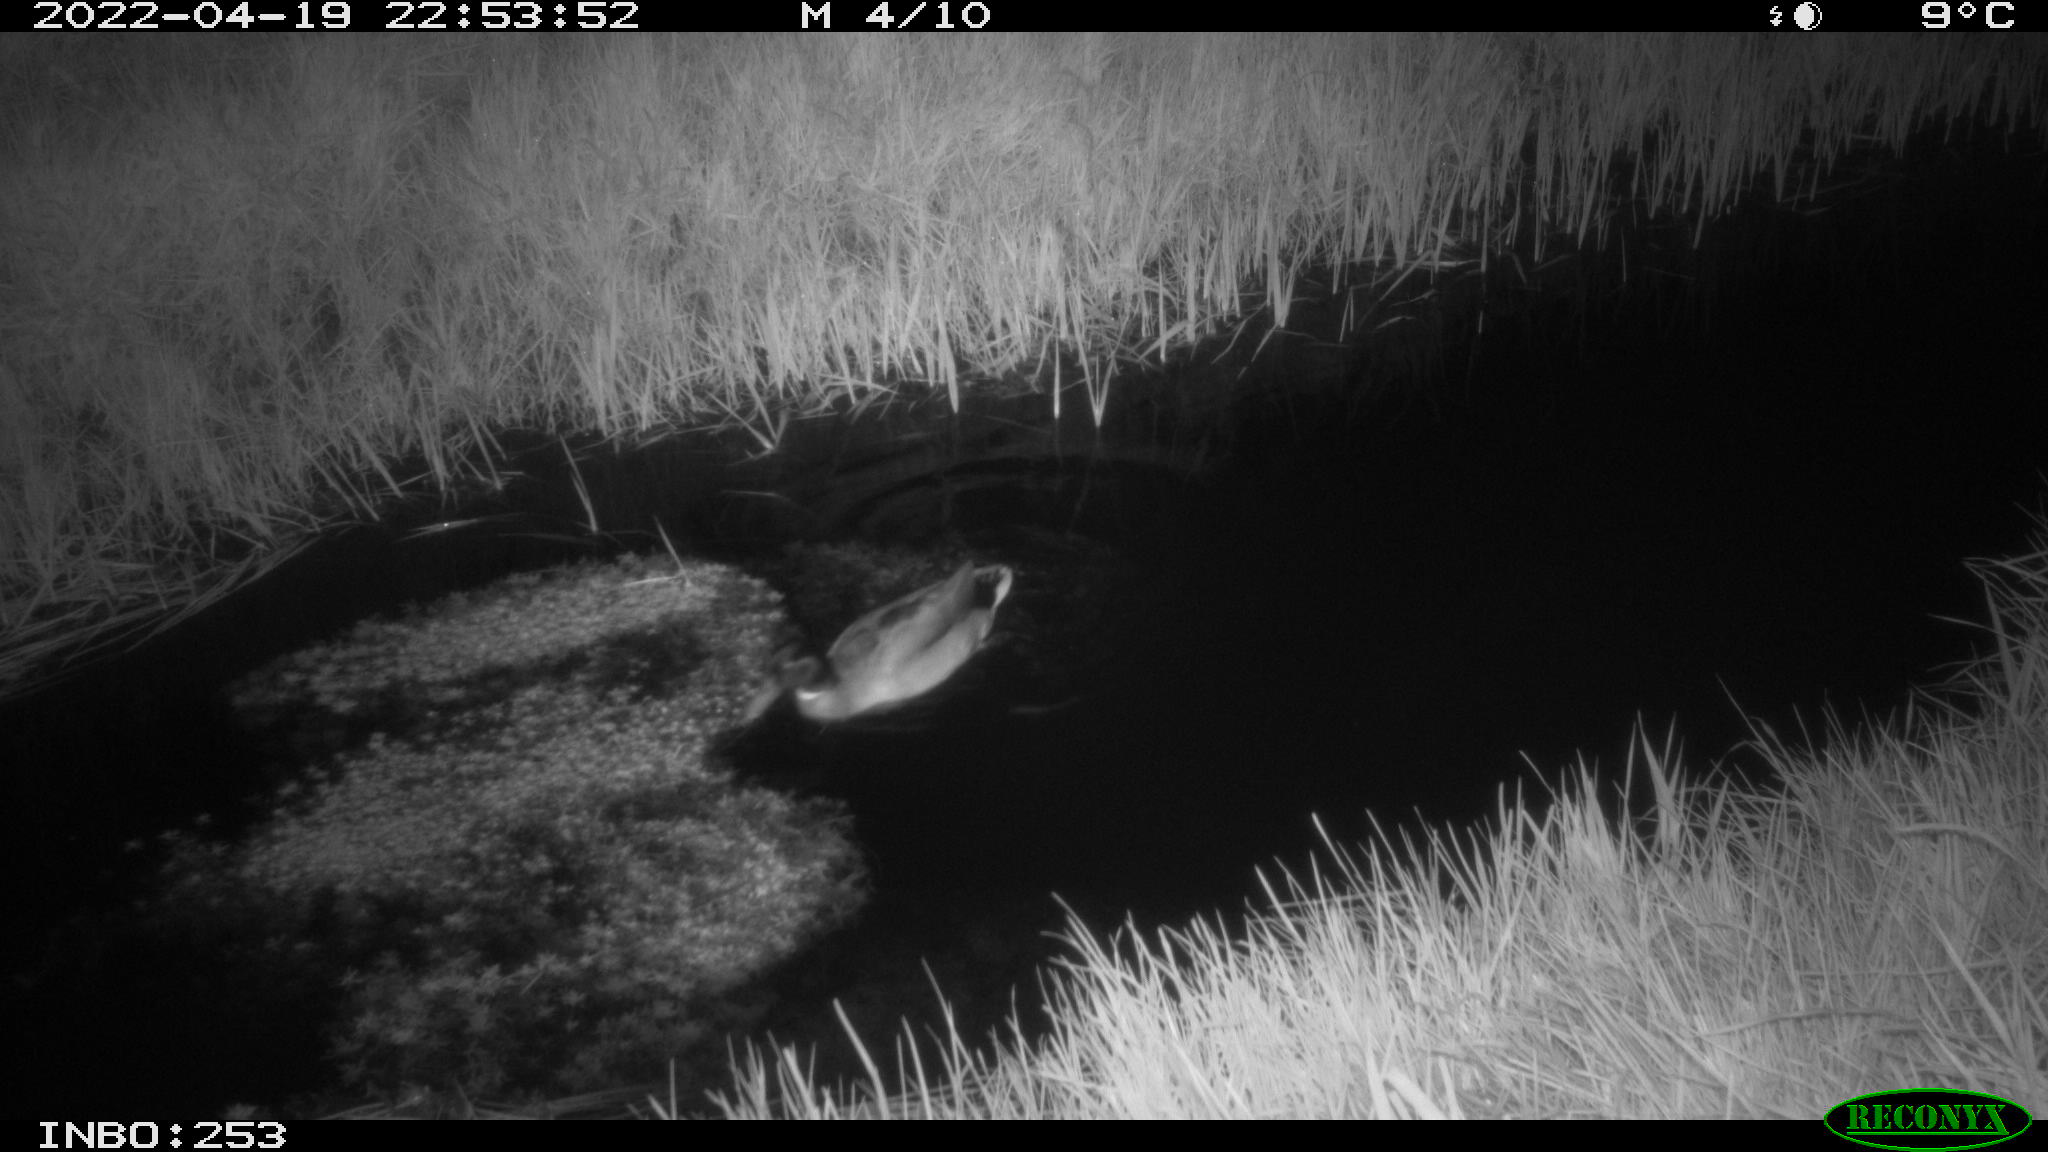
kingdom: Animalia
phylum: Chordata
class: Aves
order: Anseriformes
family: Anatidae
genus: Anas
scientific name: Anas platyrhynchos
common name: Mallard
